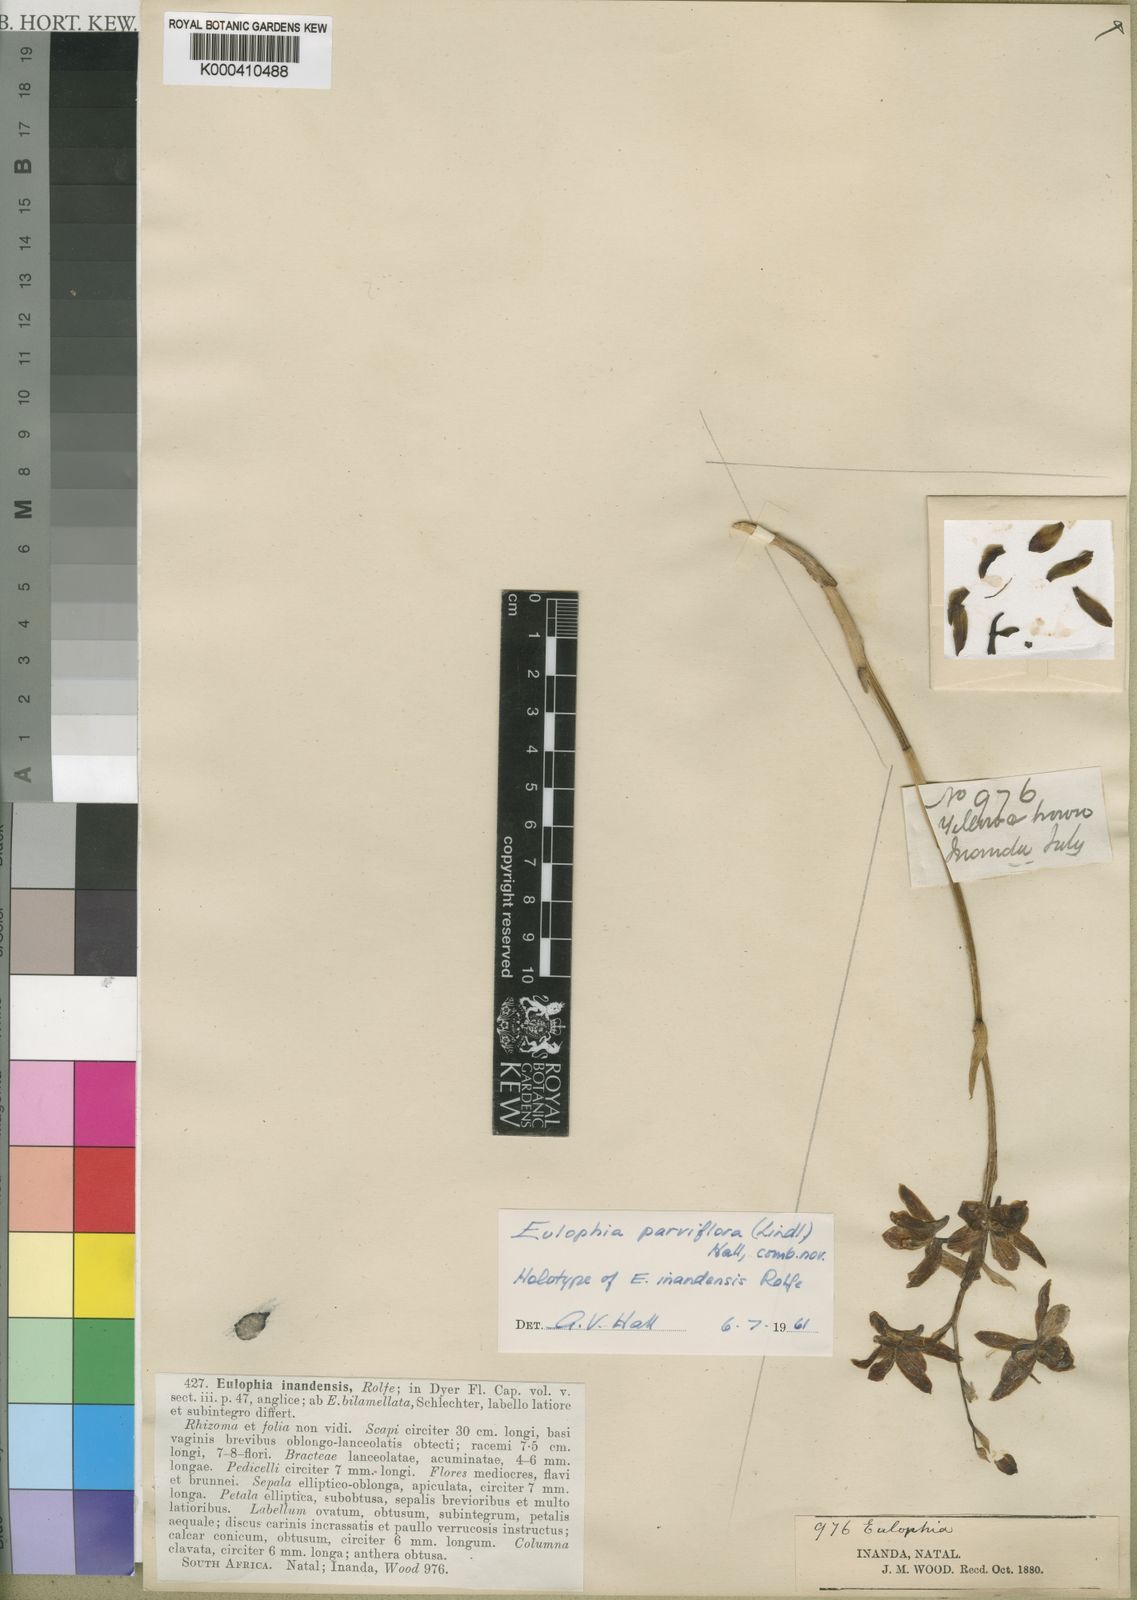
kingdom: Plantae
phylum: Tracheophyta
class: Liliopsida
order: Asparagales
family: Orchidaceae
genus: Eulophia
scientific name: Eulophia parviflora
